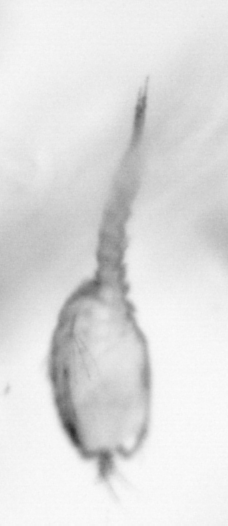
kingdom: Animalia
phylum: Arthropoda
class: Copepoda
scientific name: Copepoda
